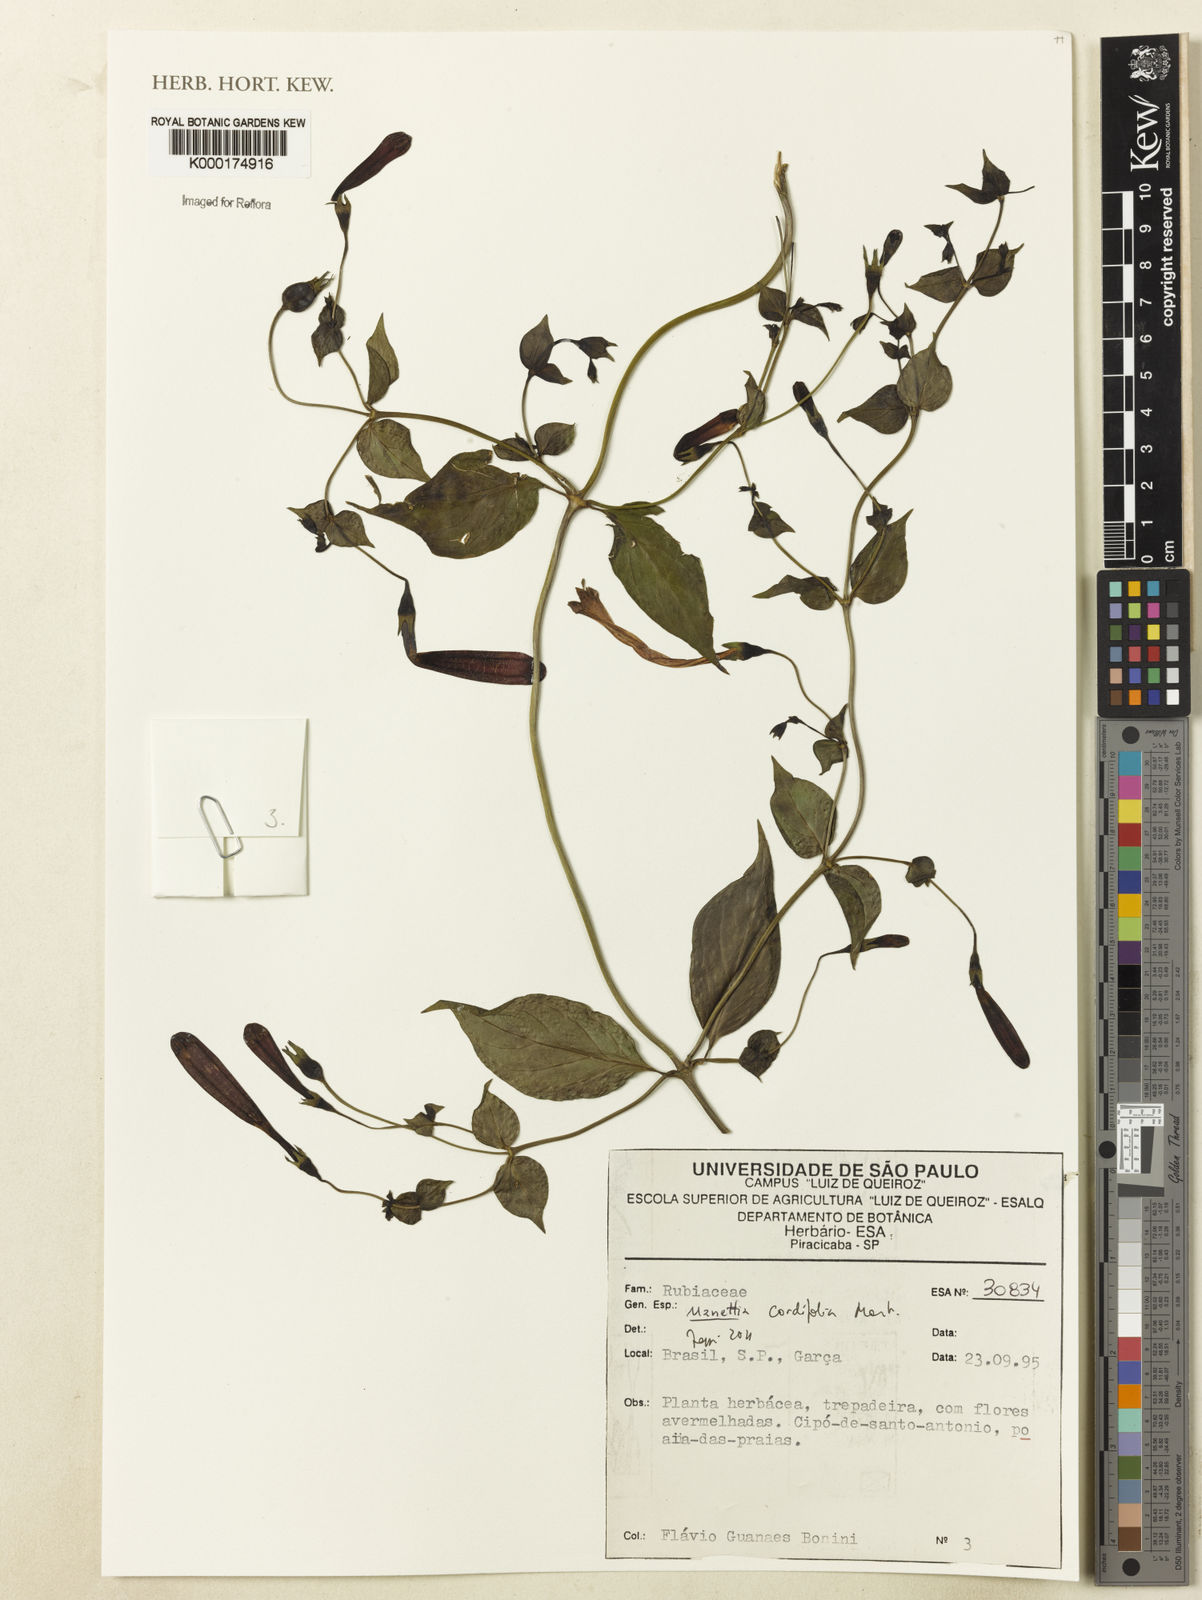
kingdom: Plantae
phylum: Tracheophyta
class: Magnoliopsida
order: Gentianales
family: Rubiaceae
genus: Manettia
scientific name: Manettia cordifolia
